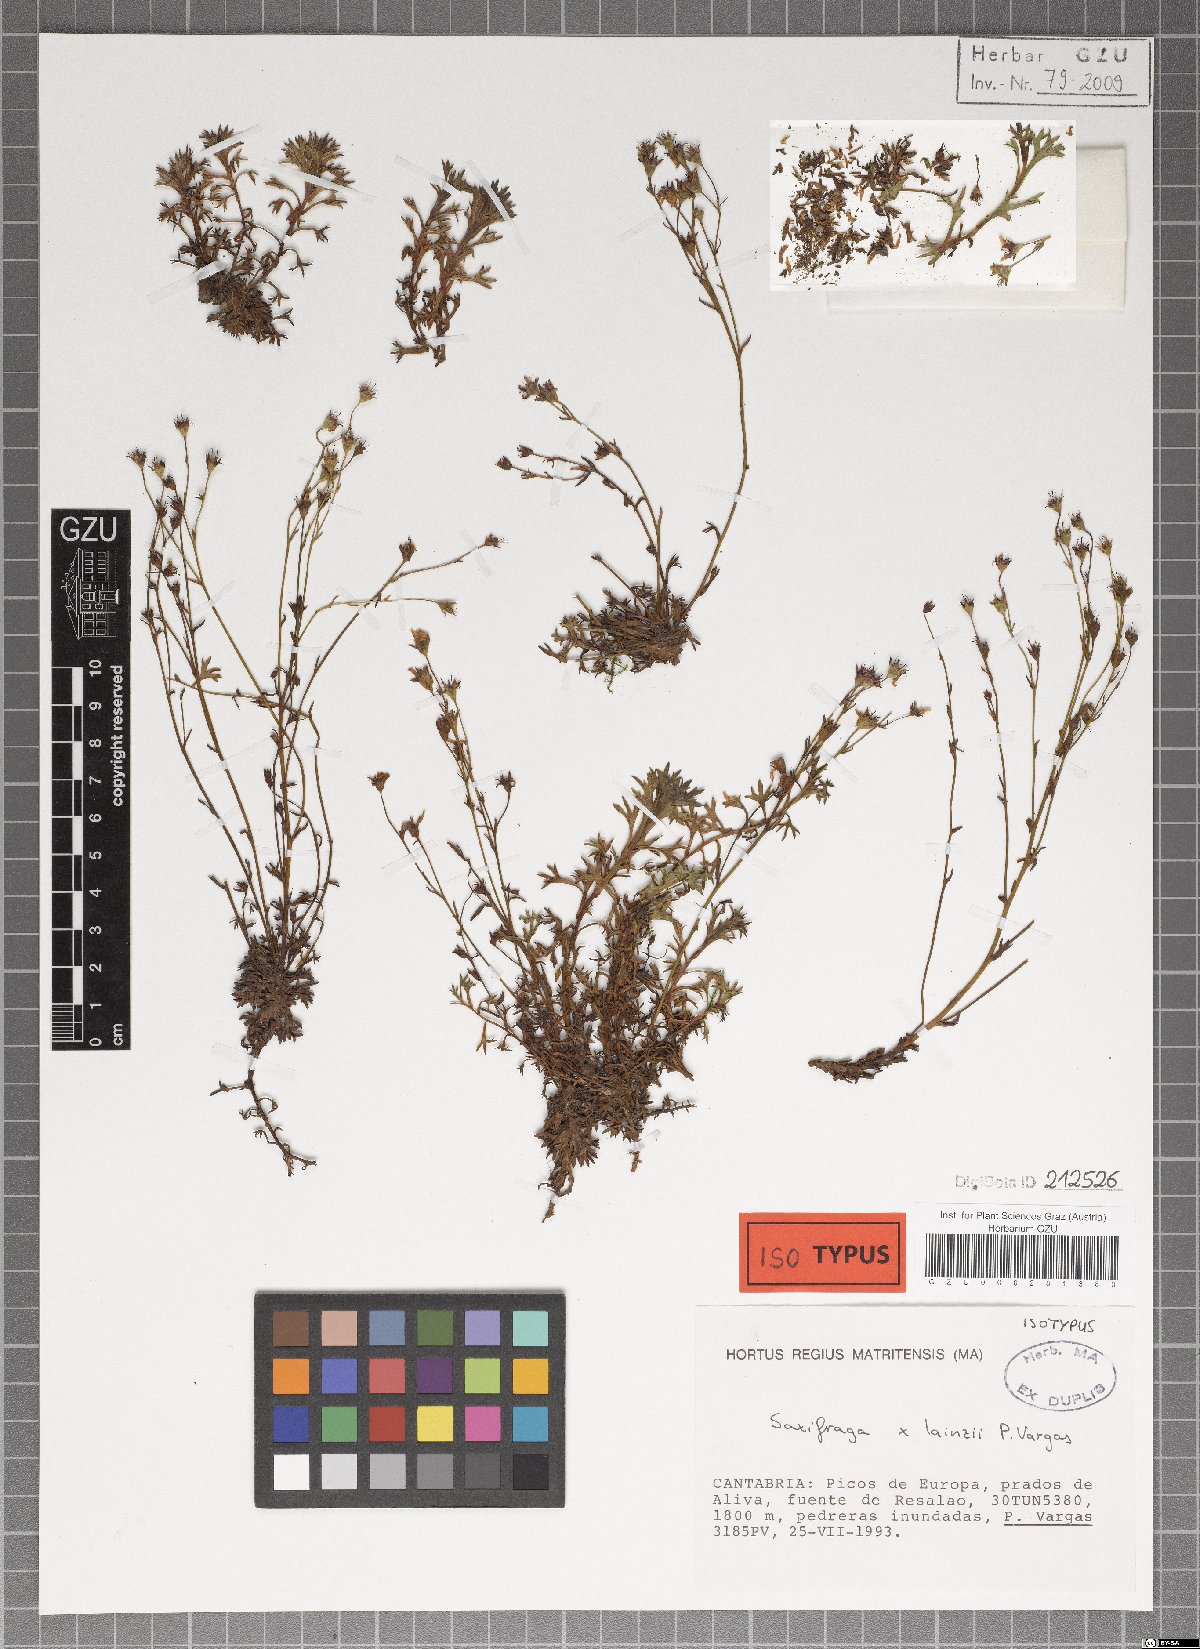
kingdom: Plantae
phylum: Tracheophyta
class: Magnoliopsida
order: Saxifragales
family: Saxifragaceae
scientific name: Saxifragaceae
